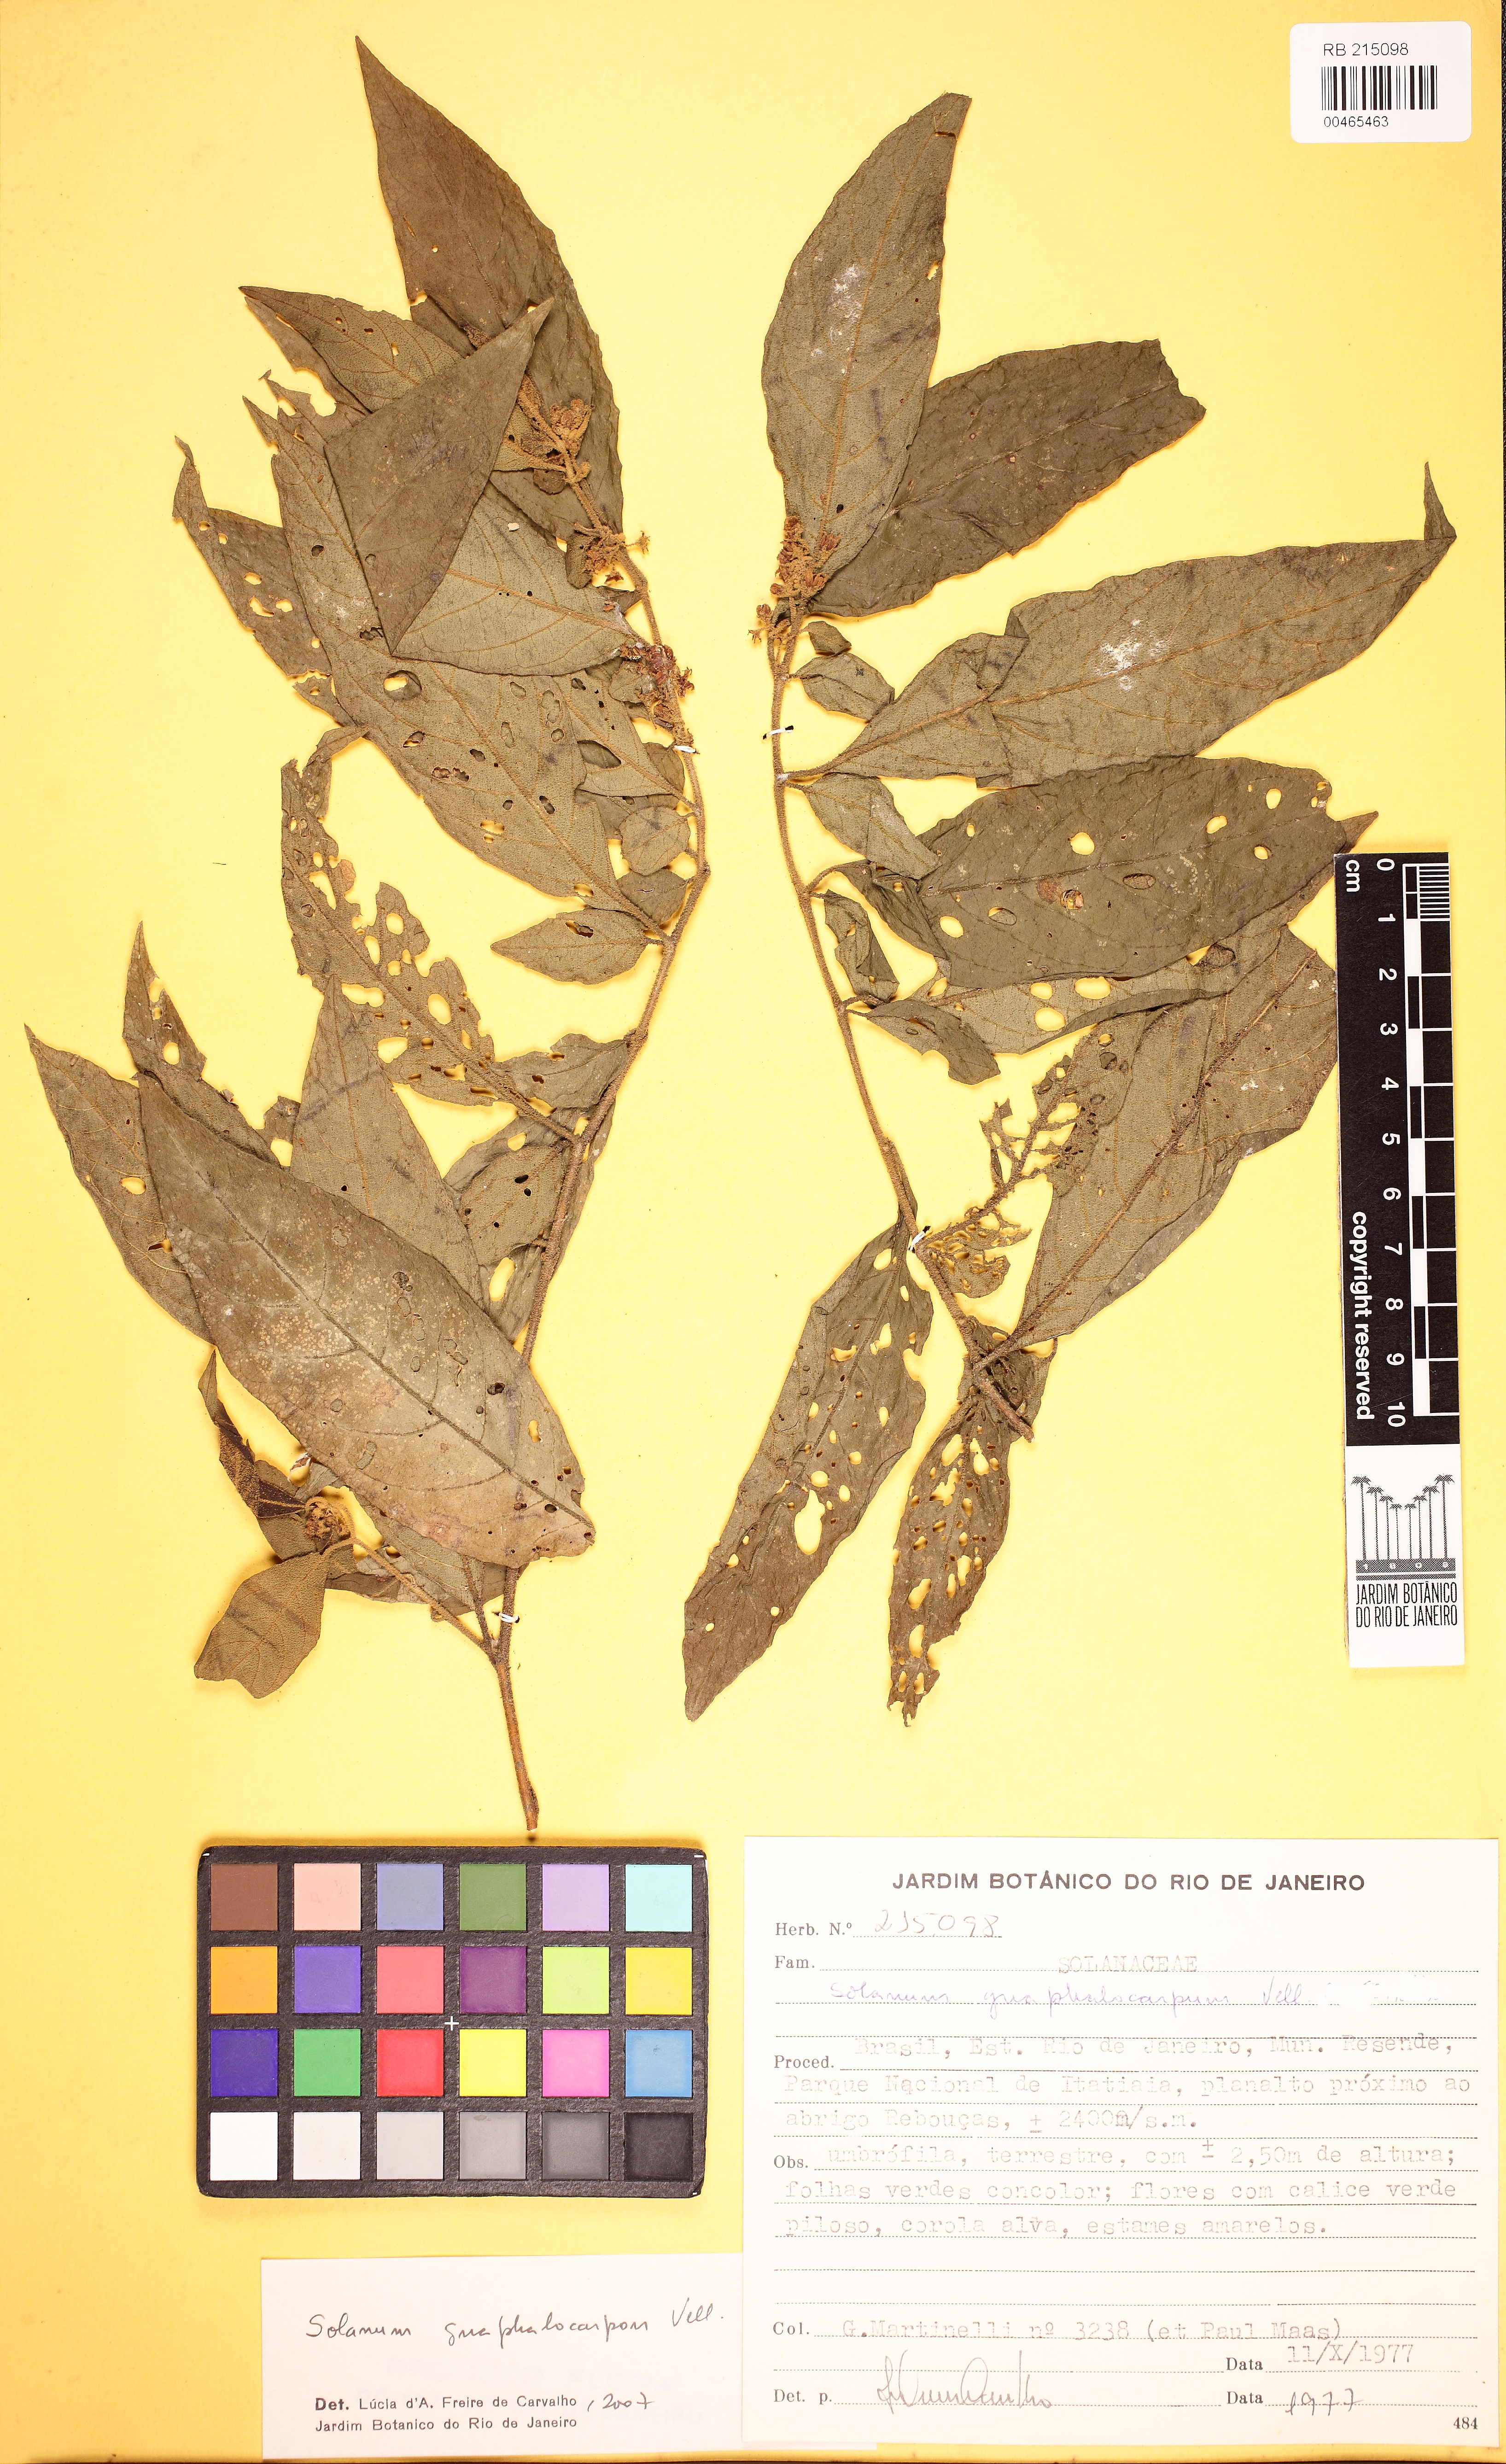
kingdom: Plantae
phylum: Tracheophyta
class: Magnoliopsida
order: Solanales
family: Solanaceae
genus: Solanum
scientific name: Solanum gnaphalocarpum
